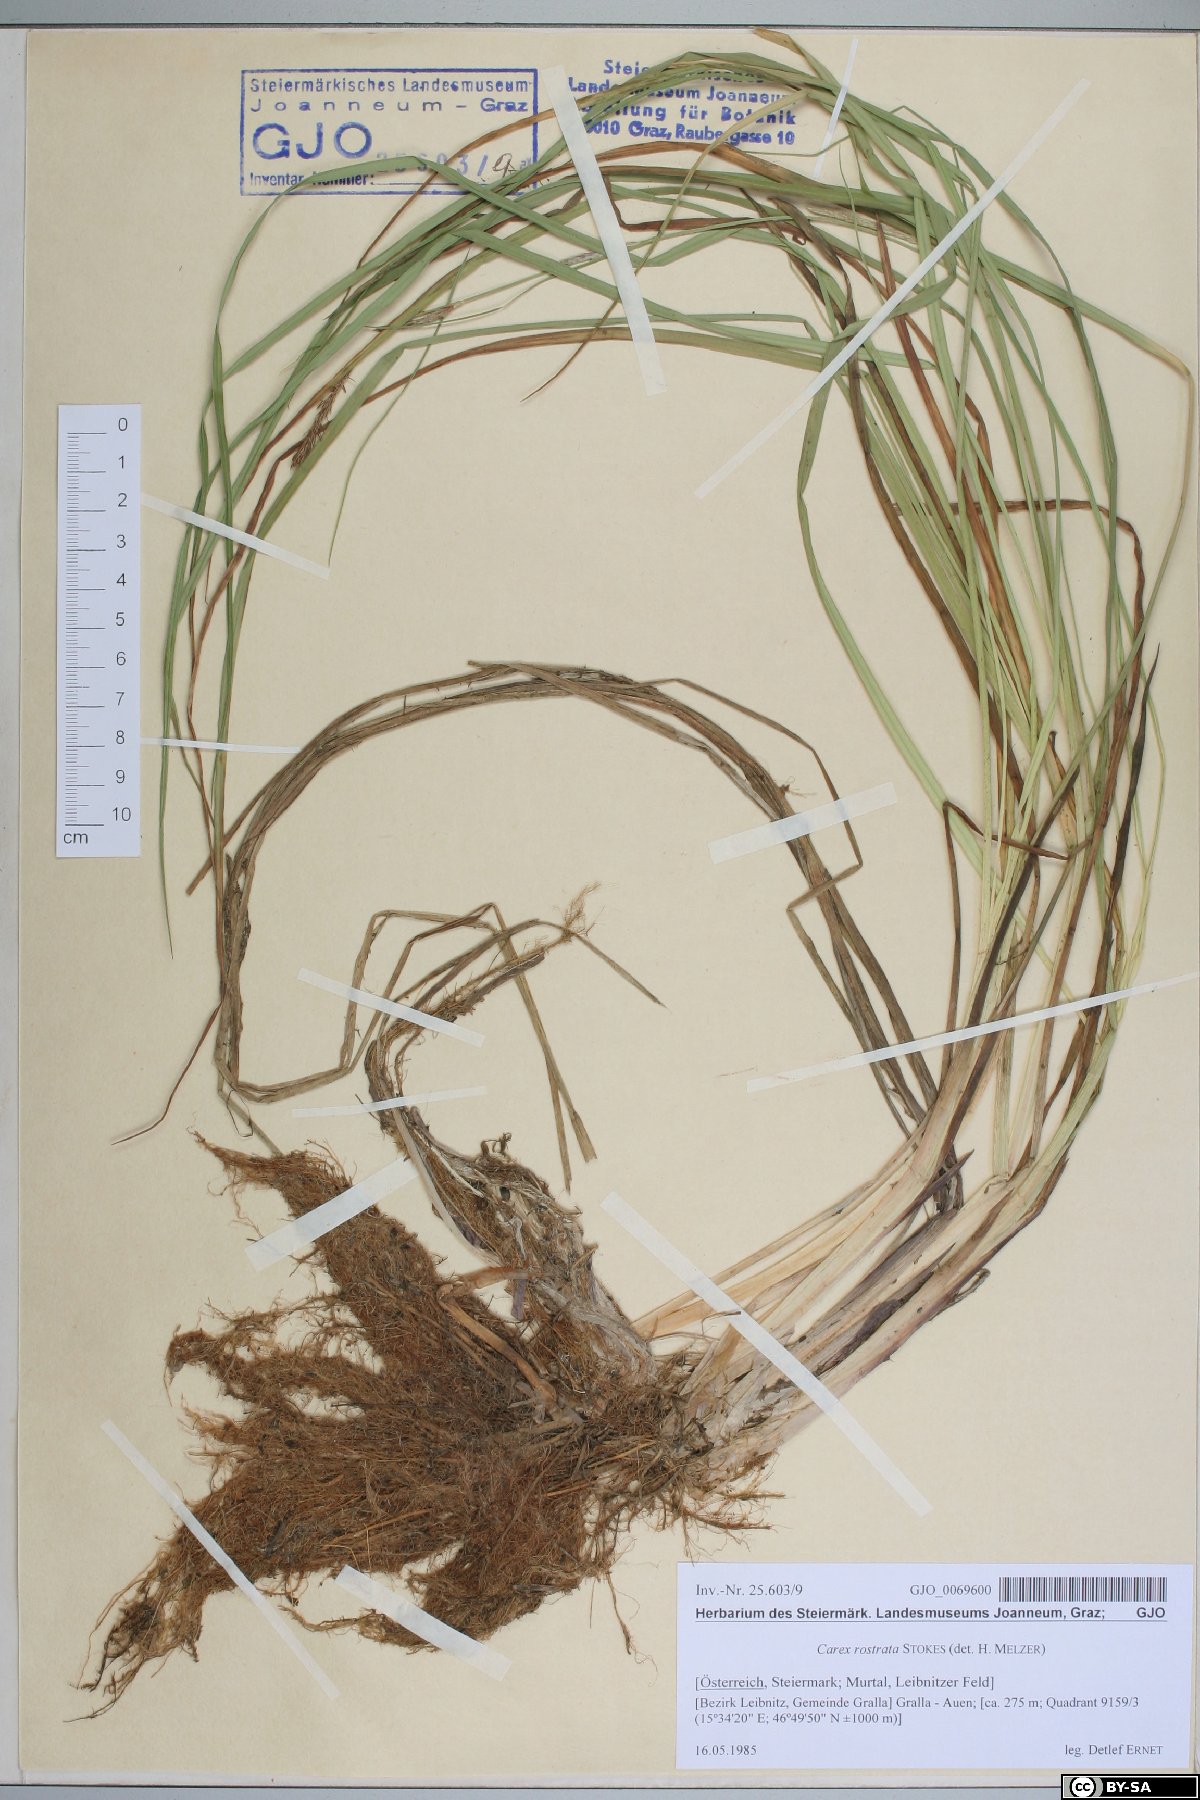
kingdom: Plantae
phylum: Tracheophyta
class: Liliopsida
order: Poales
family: Cyperaceae
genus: Carex
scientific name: Carex rostrata
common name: Bottle sedge
